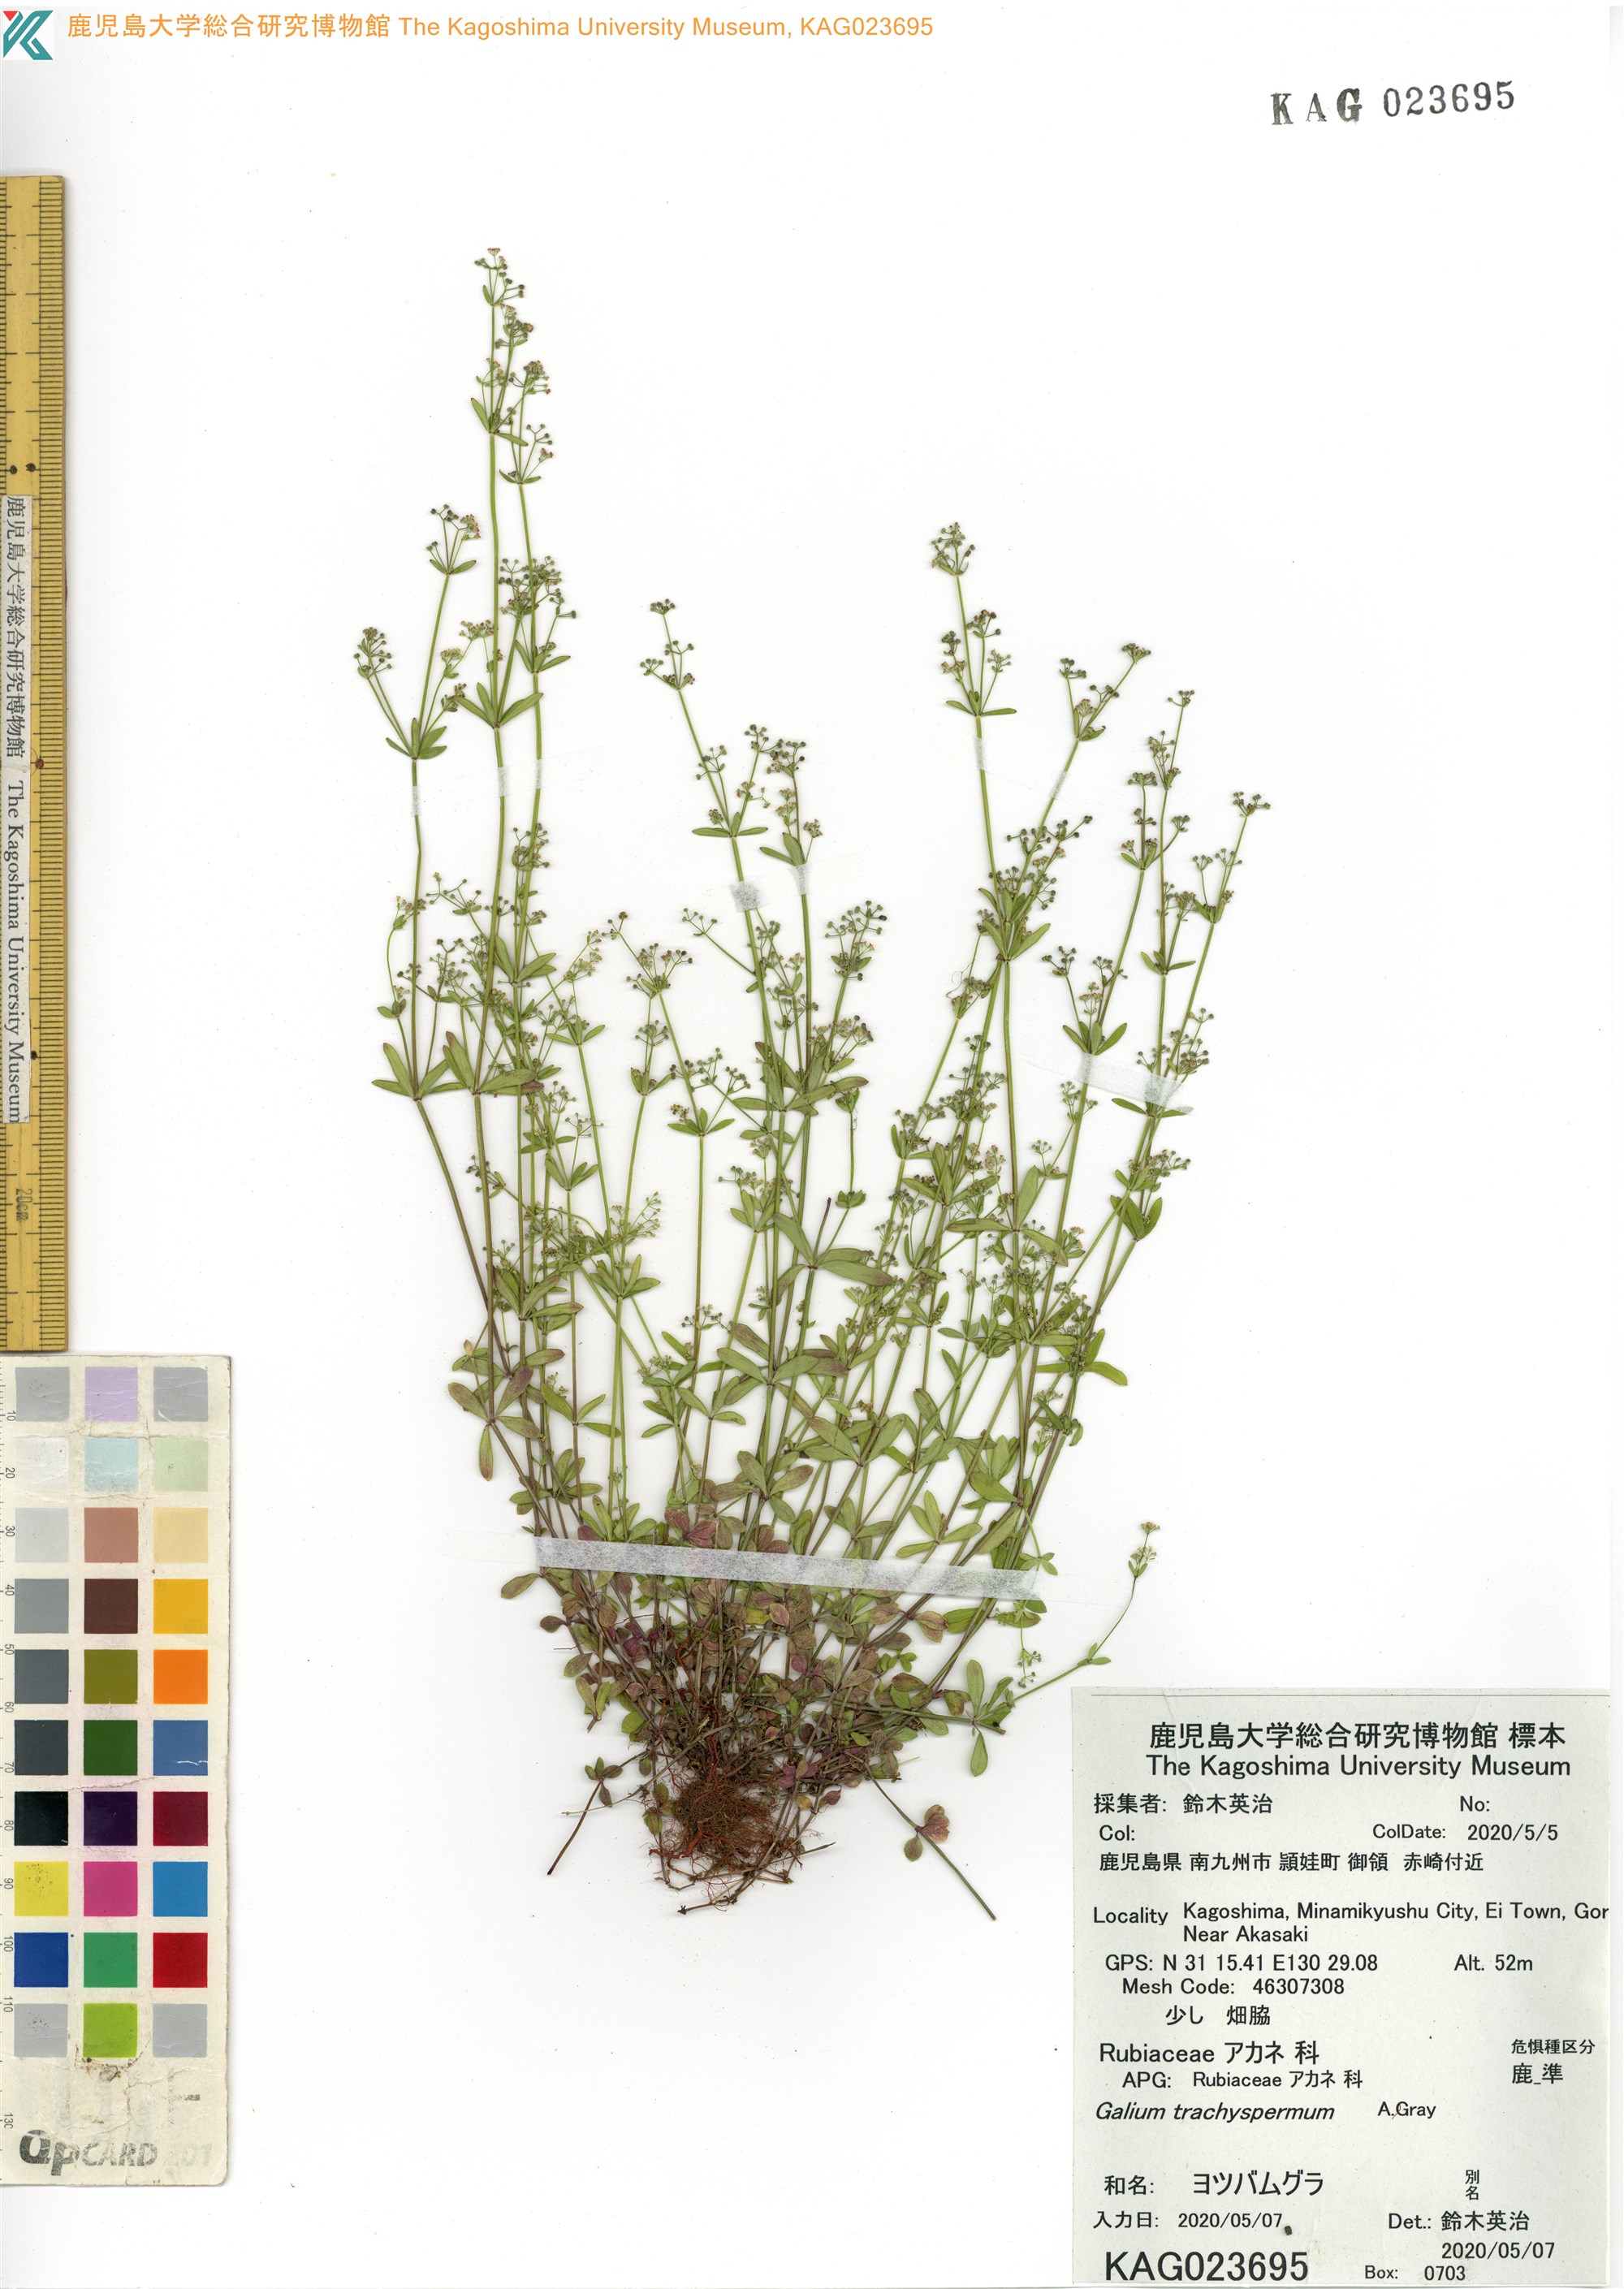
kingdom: Plantae
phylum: Tracheophyta
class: Magnoliopsida
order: Gentianales
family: Rubiaceae
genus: Galium
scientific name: Galium bungei
